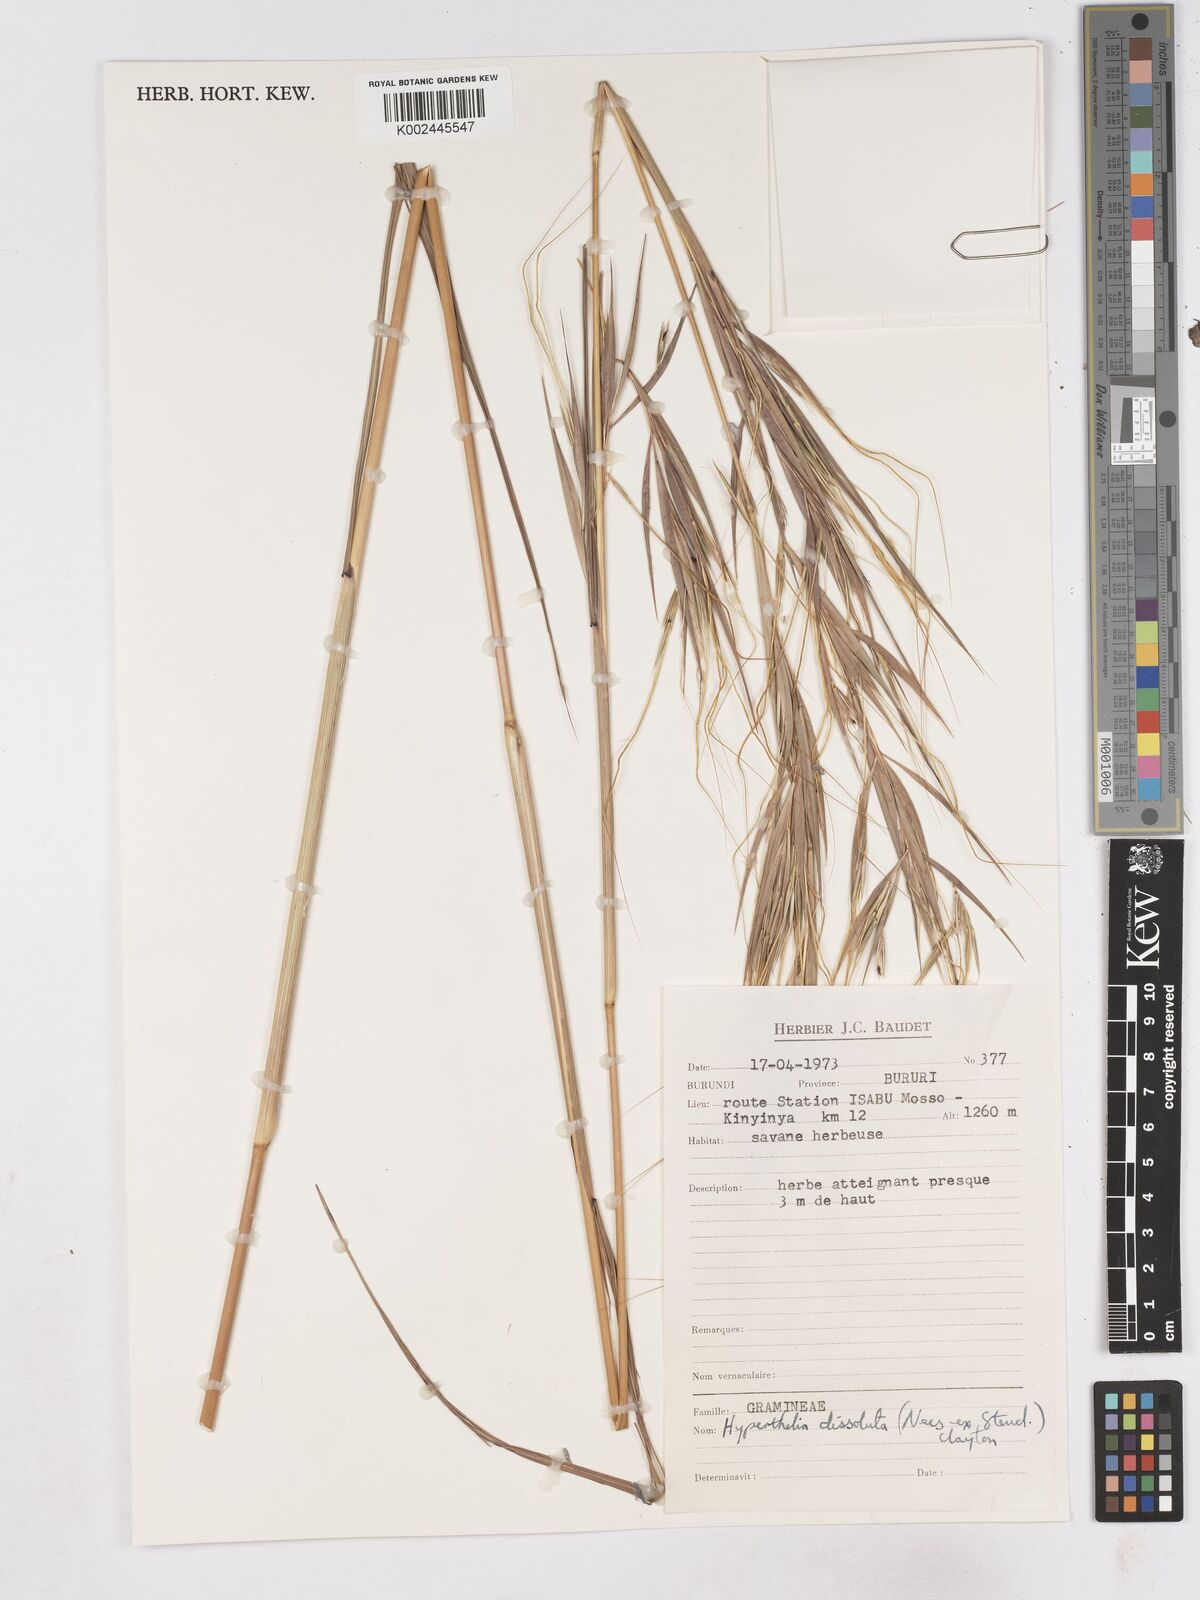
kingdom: Plantae
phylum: Tracheophyta
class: Liliopsida
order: Poales
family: Poaceae
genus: Hyperthelia
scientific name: Hyperthelia dissoluta
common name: Yellow thatching grass
